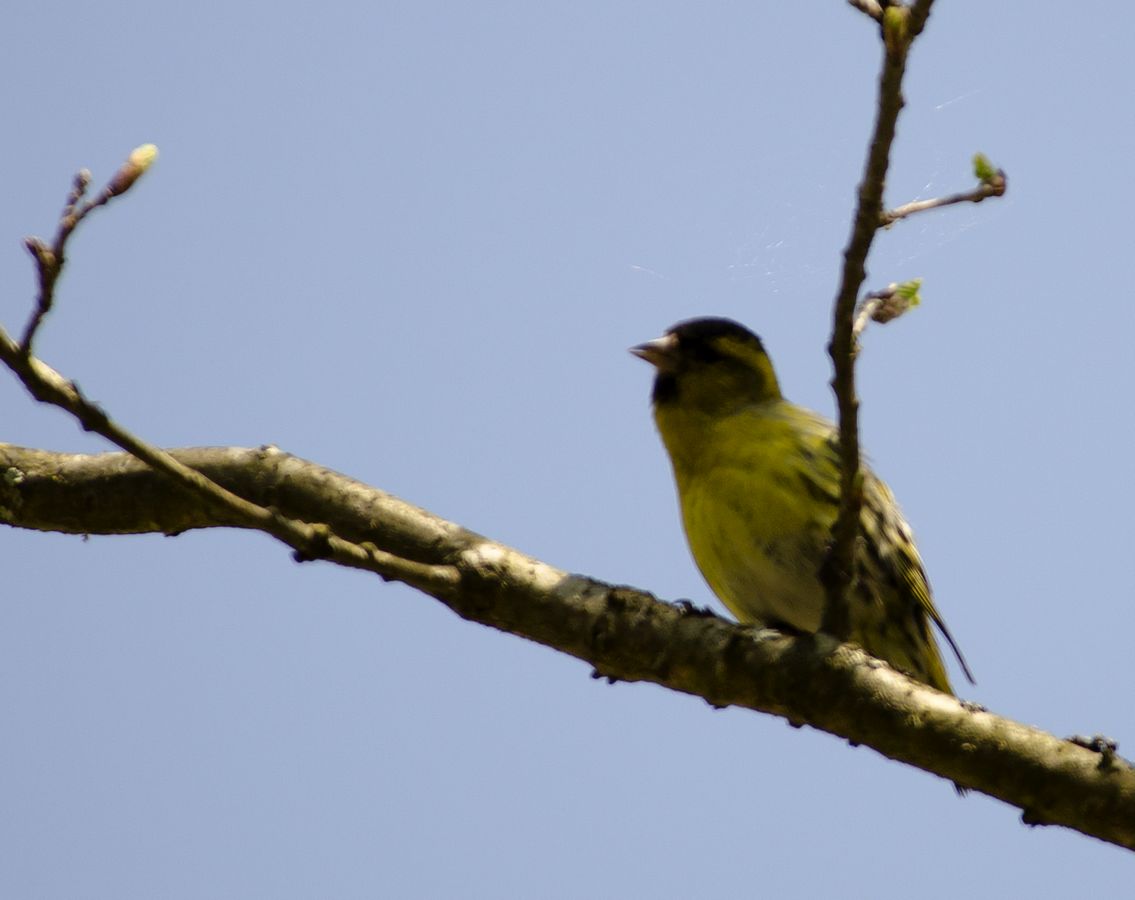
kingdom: Animalia
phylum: Chordata
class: Aves
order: Passeriformes
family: Fringillidae
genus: Spinus
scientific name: Spinus spinus
